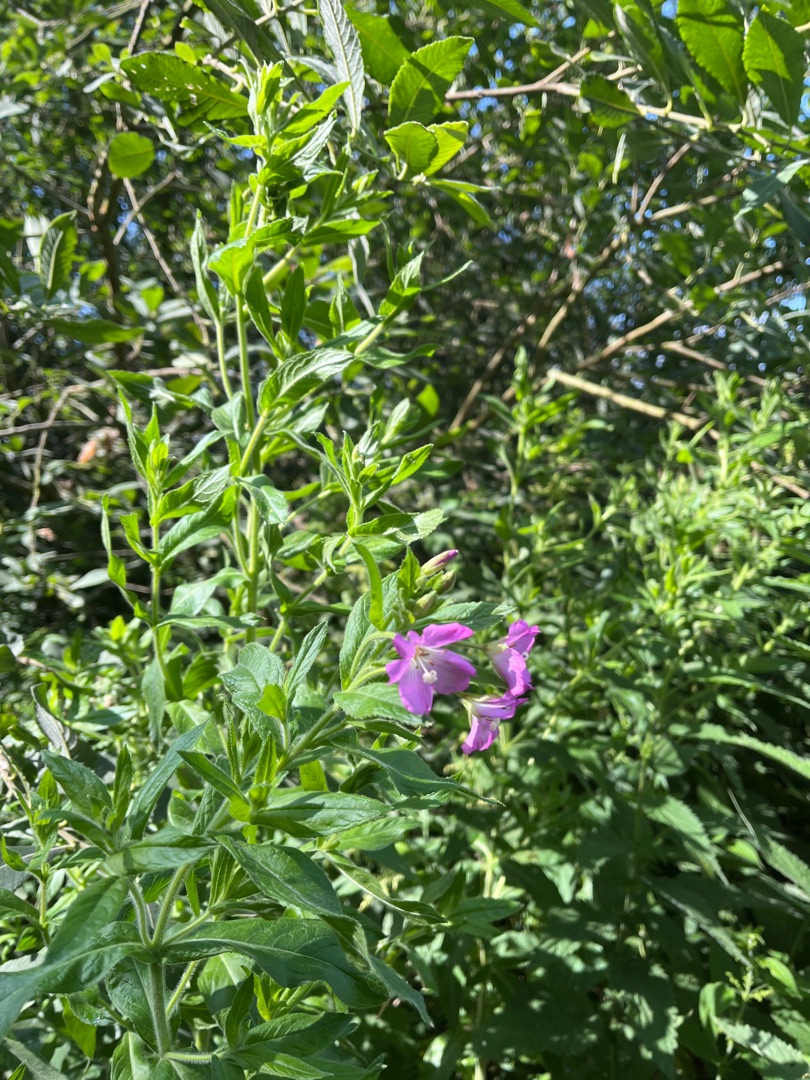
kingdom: Plantae
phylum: Tracheophyta
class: Magnoliopsida
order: Myrtales
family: Onagraceae
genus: Epilobium
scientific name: Epilobium hirsutum
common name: Lådden dueurt
